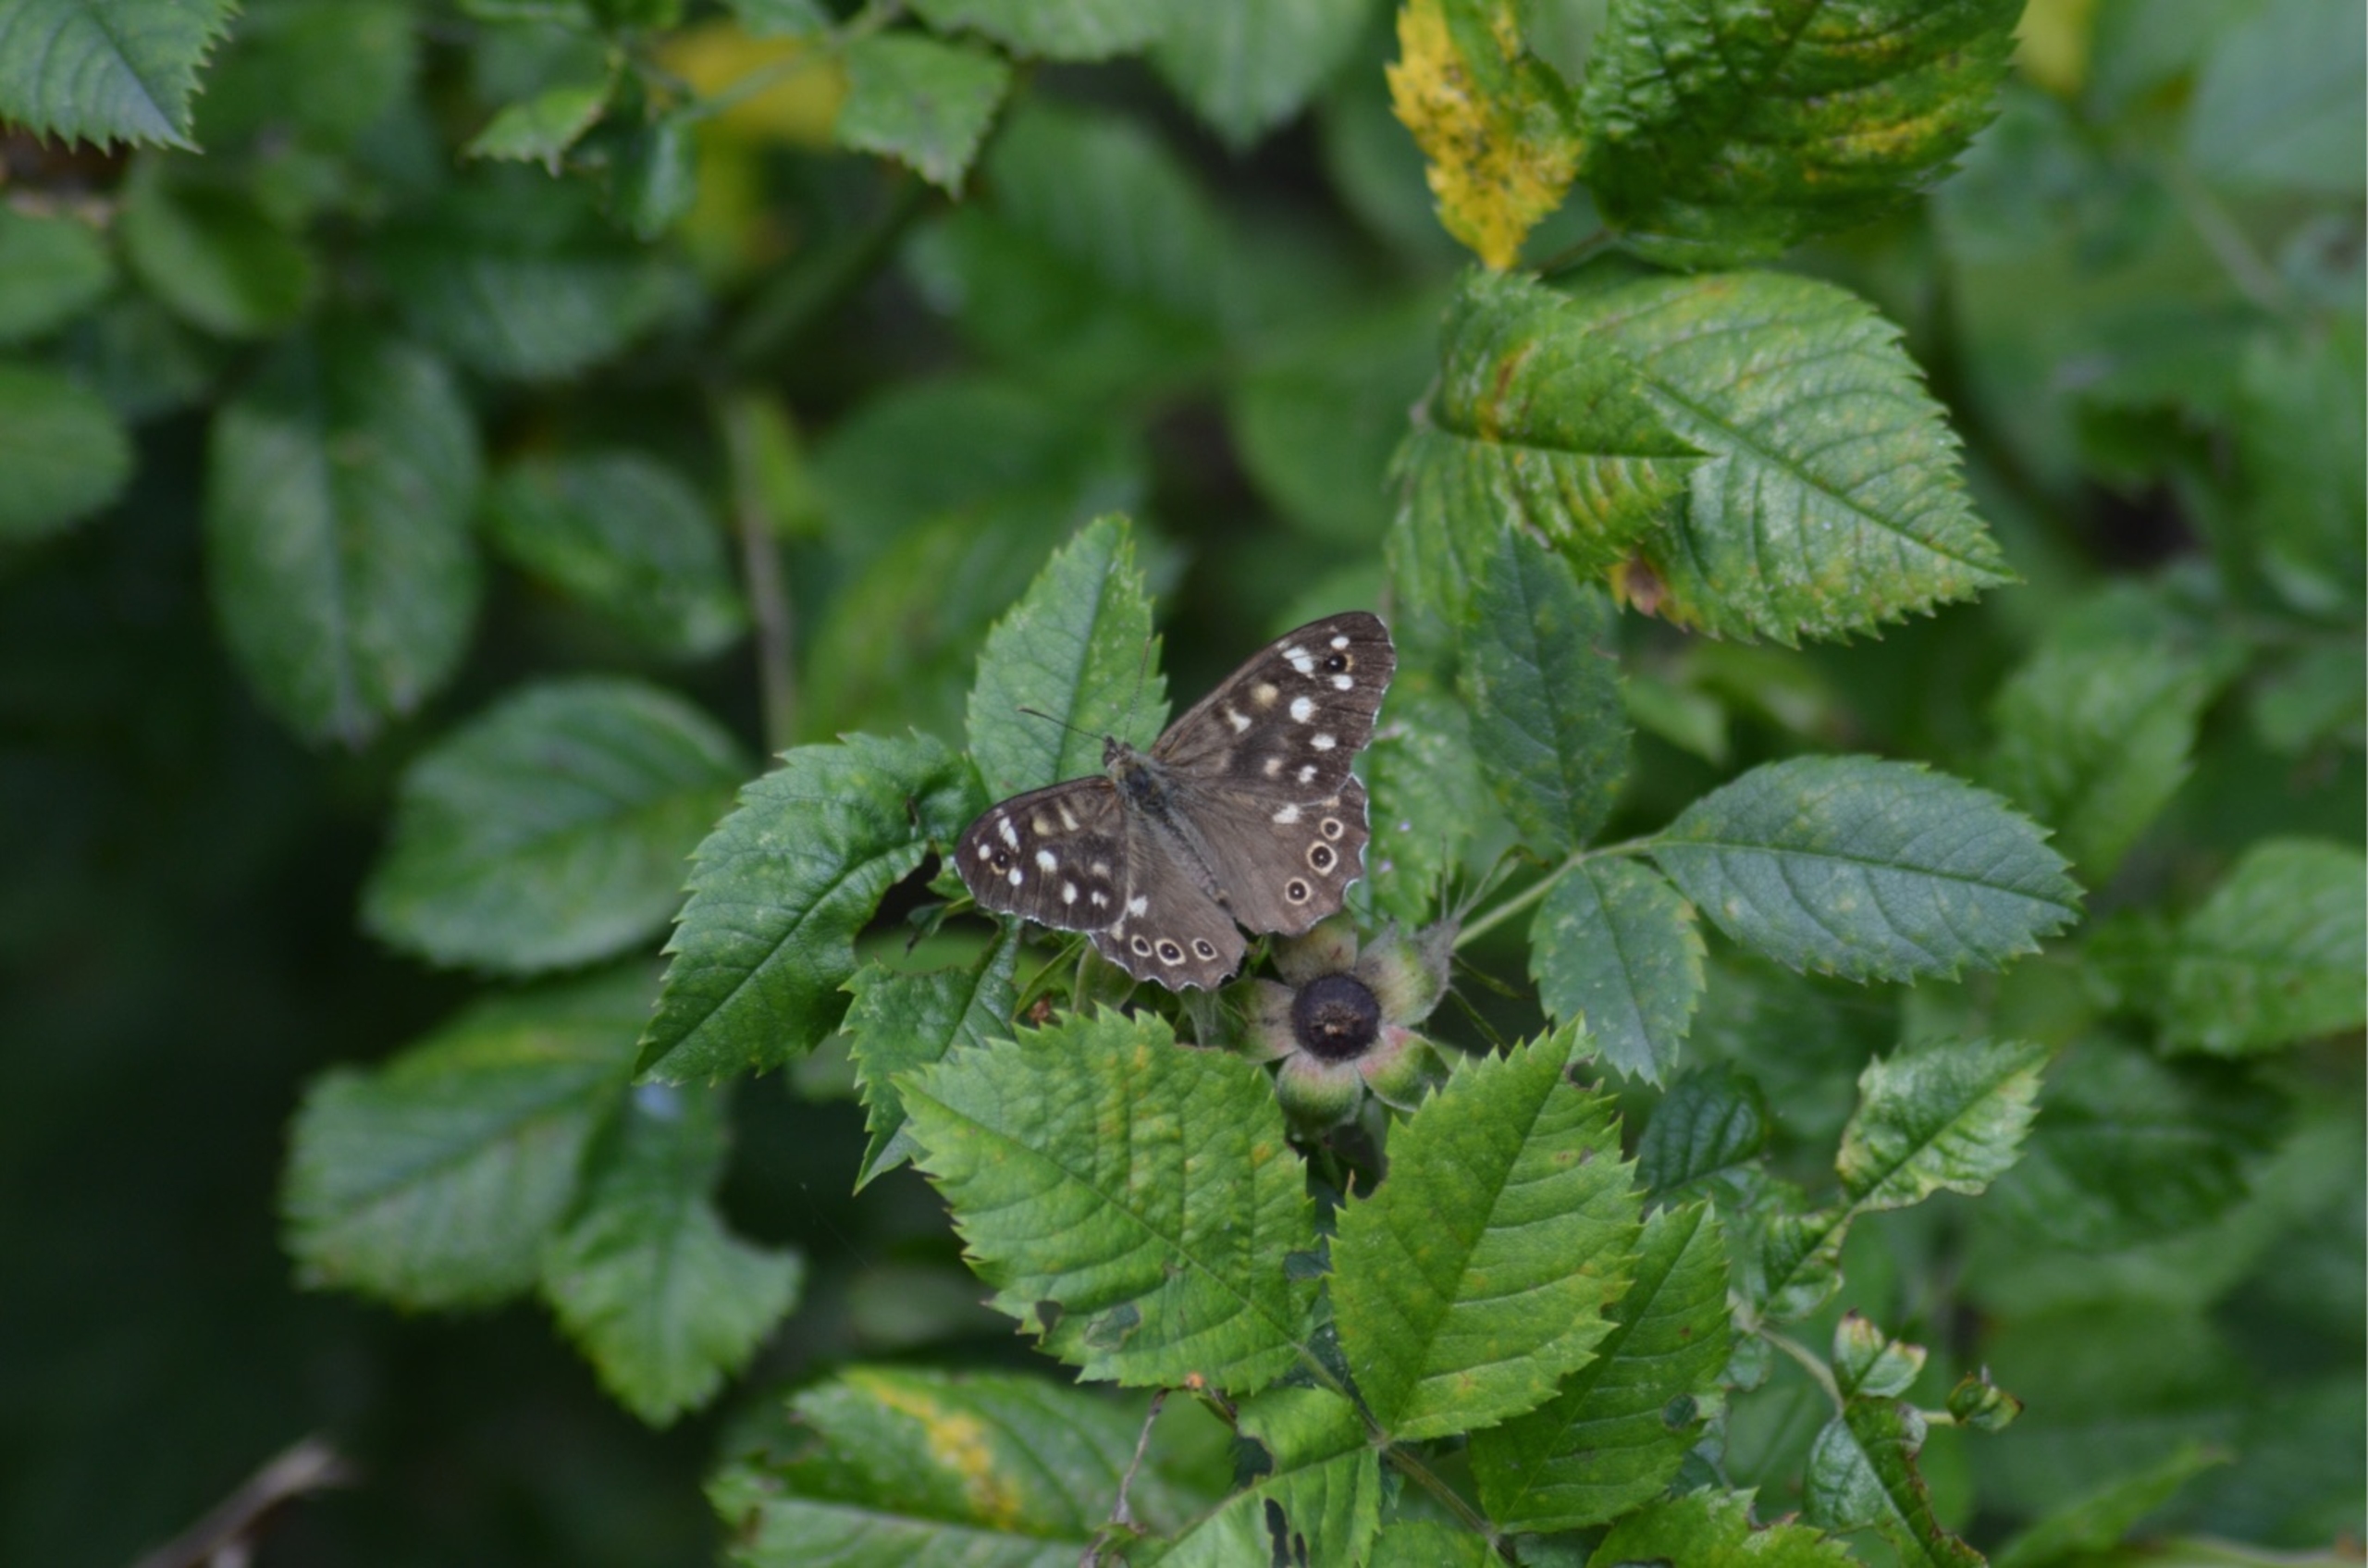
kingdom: Animalia
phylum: Arthropoda
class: Insecta
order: Lepidoptera
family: Nymphalidae
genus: Pararge
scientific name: Pararge aegeria
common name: Skovrandøje
